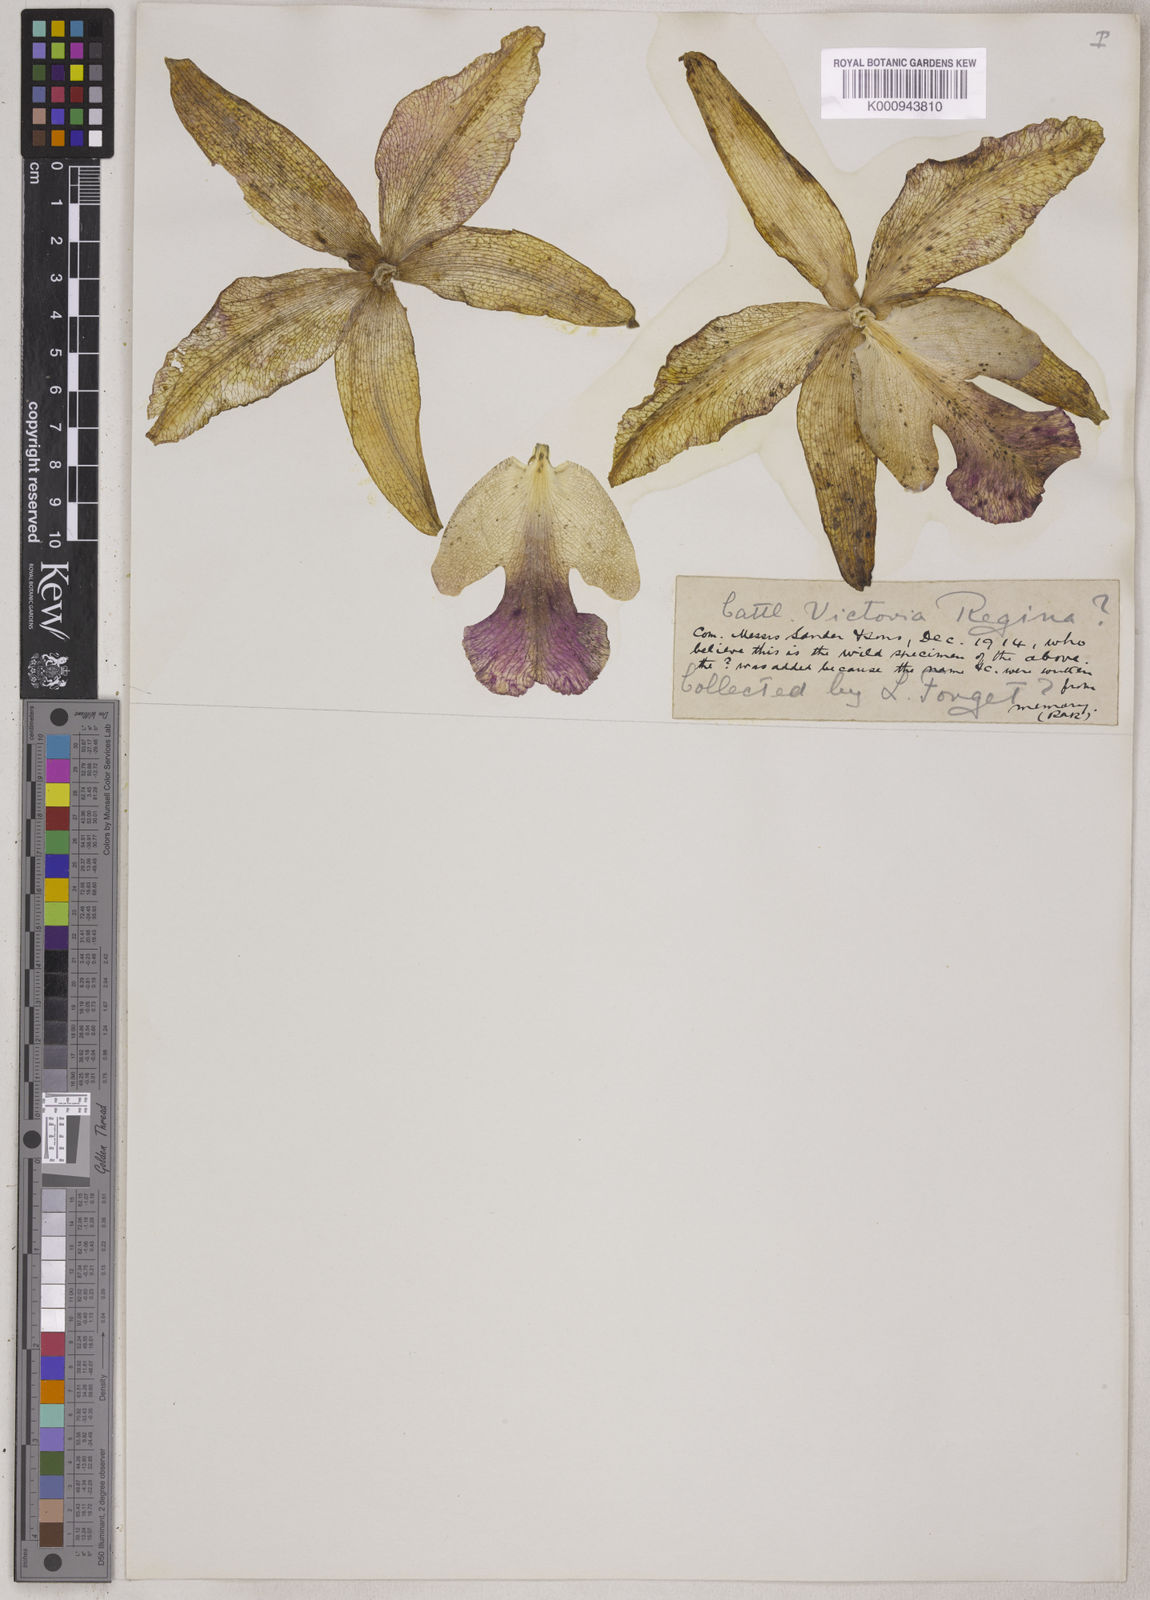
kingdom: Plantae
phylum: Tracheophyta
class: Liliopsida
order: Asparagales
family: Orchidaceae
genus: Cattleya
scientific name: Cattleya victoria-regina
